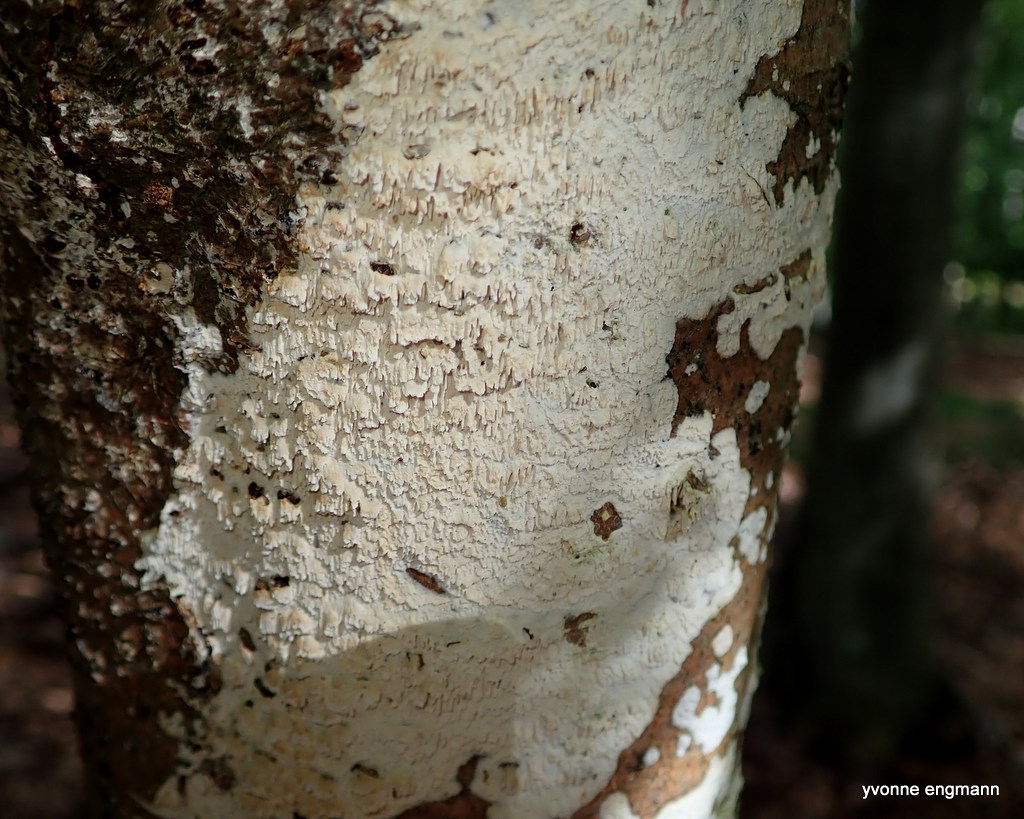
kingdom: Fungi
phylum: Basidiomycota
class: Agaricomycetes
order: Hymenochaetales
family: Schizoporaceae
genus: Xylodon
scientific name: Xylodon radula
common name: grovtandet kalkskind
